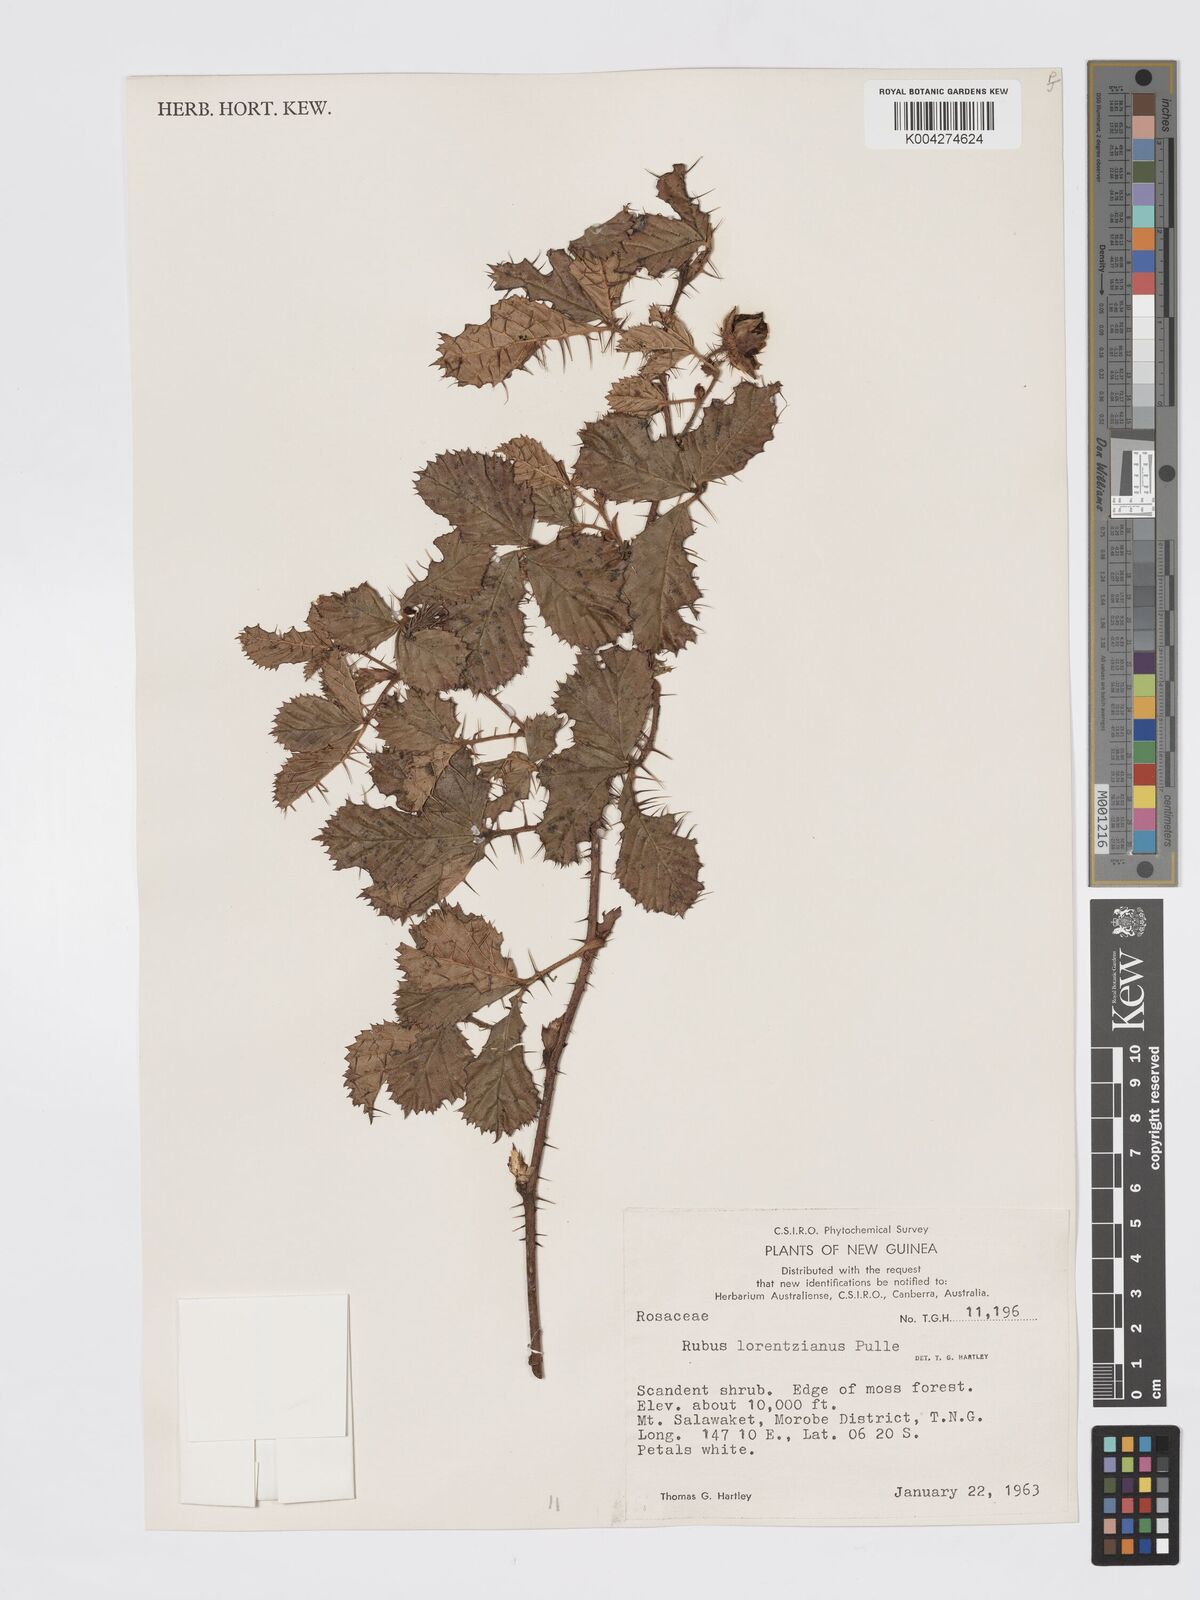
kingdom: Plantae
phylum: Tracheophyta
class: Magnoliopsida
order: Rosales
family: Rosaceae
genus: Rubus
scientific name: Rubus lorentzianus
